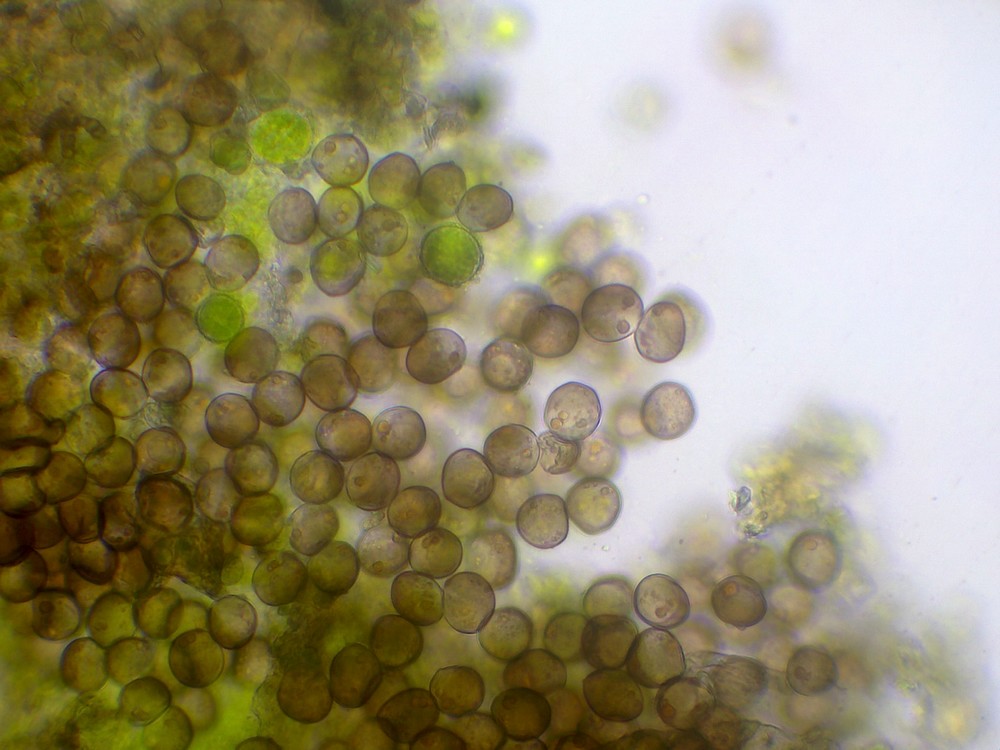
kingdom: Protozoa
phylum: Mycetozoa
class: Myxomycetes
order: Cribrariales
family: Liceaceae
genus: Licea
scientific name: Licea parasitica
